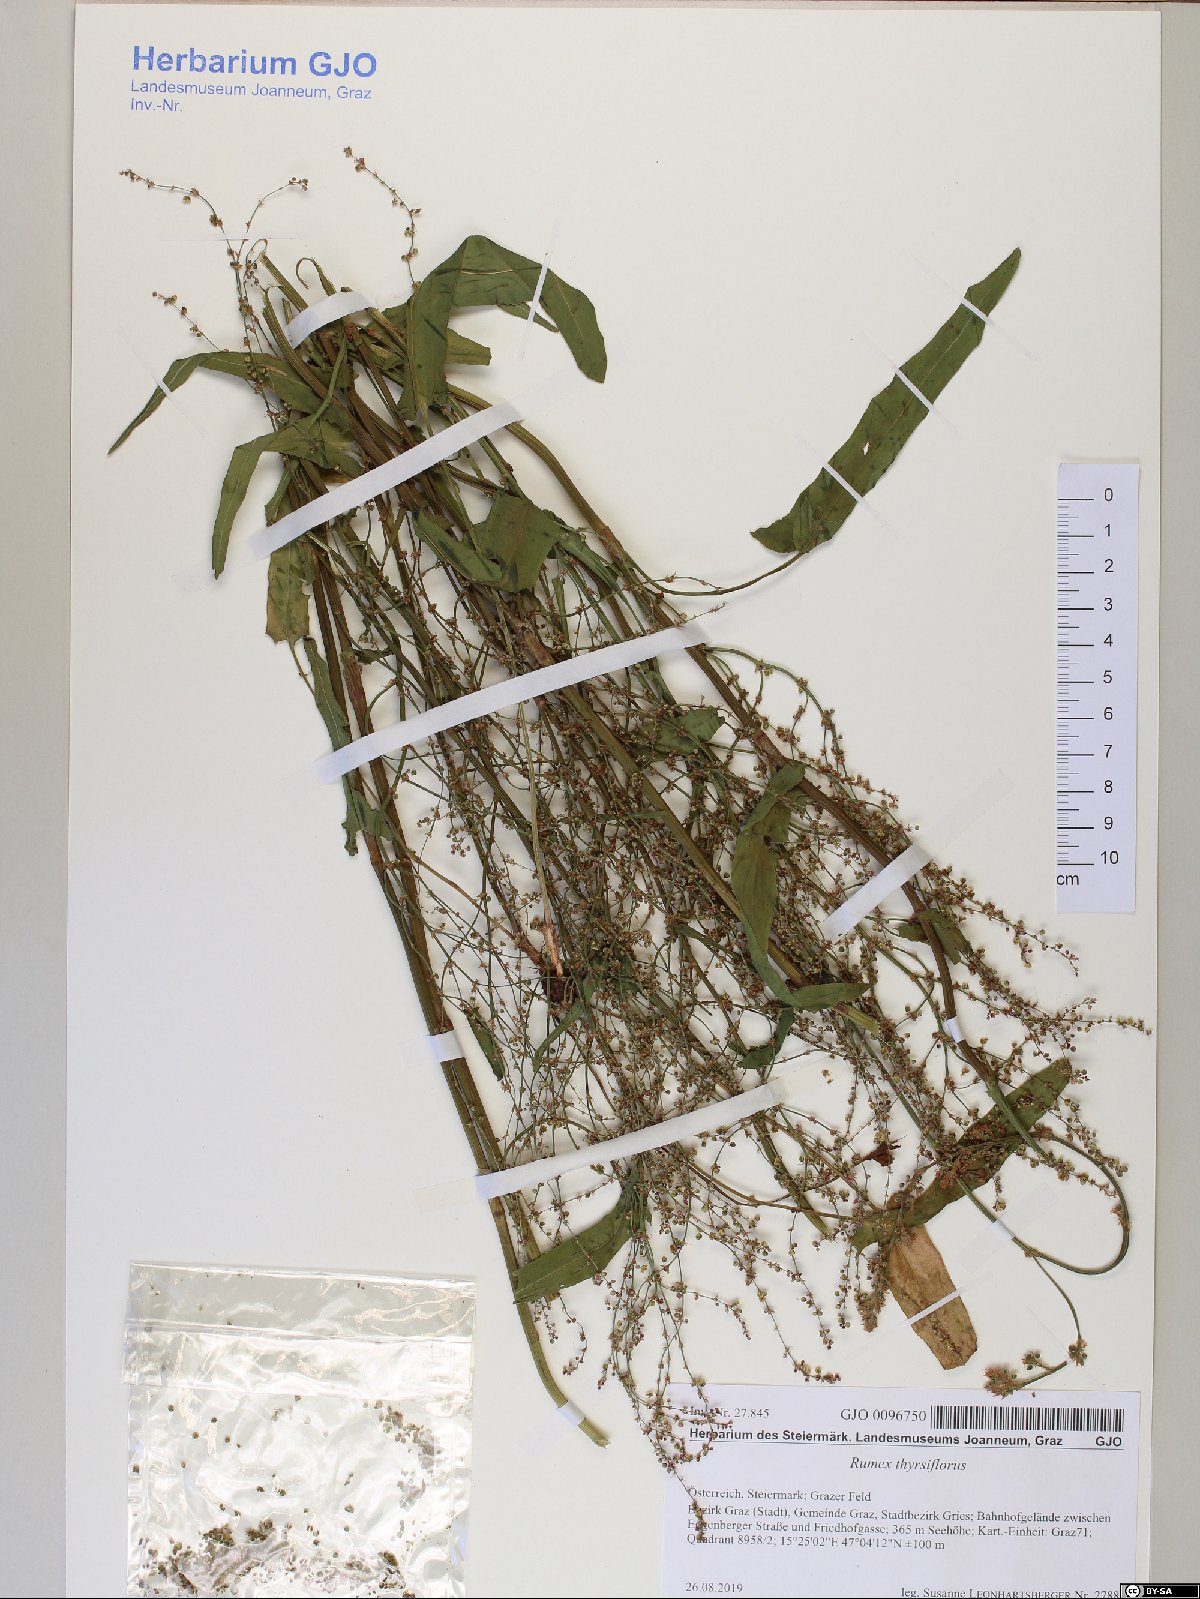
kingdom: Plantae
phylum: Tracheophyta
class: Magnoliopsida
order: Caryophyllales
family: Polygonaceae
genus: Rumex
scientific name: Rumex thyrsiflorus
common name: Garden sorrel
